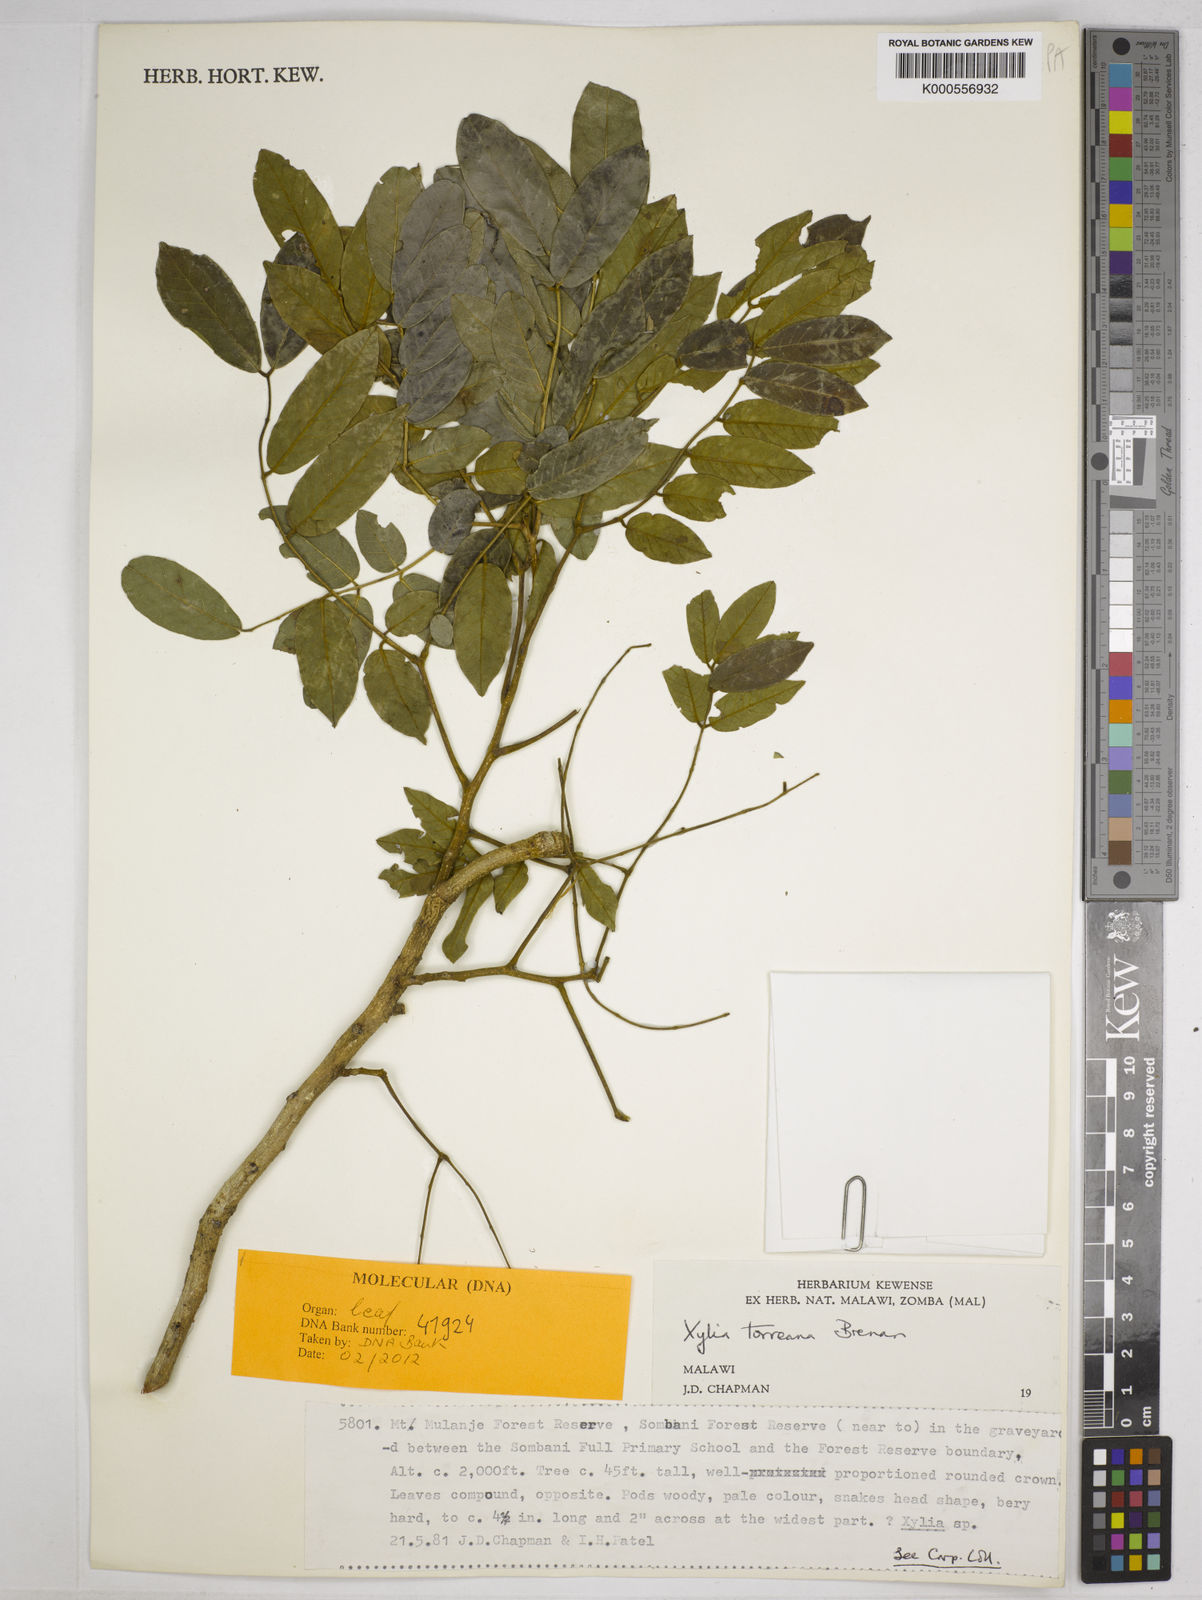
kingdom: Plantae
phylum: Tracheophyta
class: Magnoliopsida
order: Fabales
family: Fabaceae
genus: Xylia
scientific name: Xylia torreana
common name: Hairy sand ash
